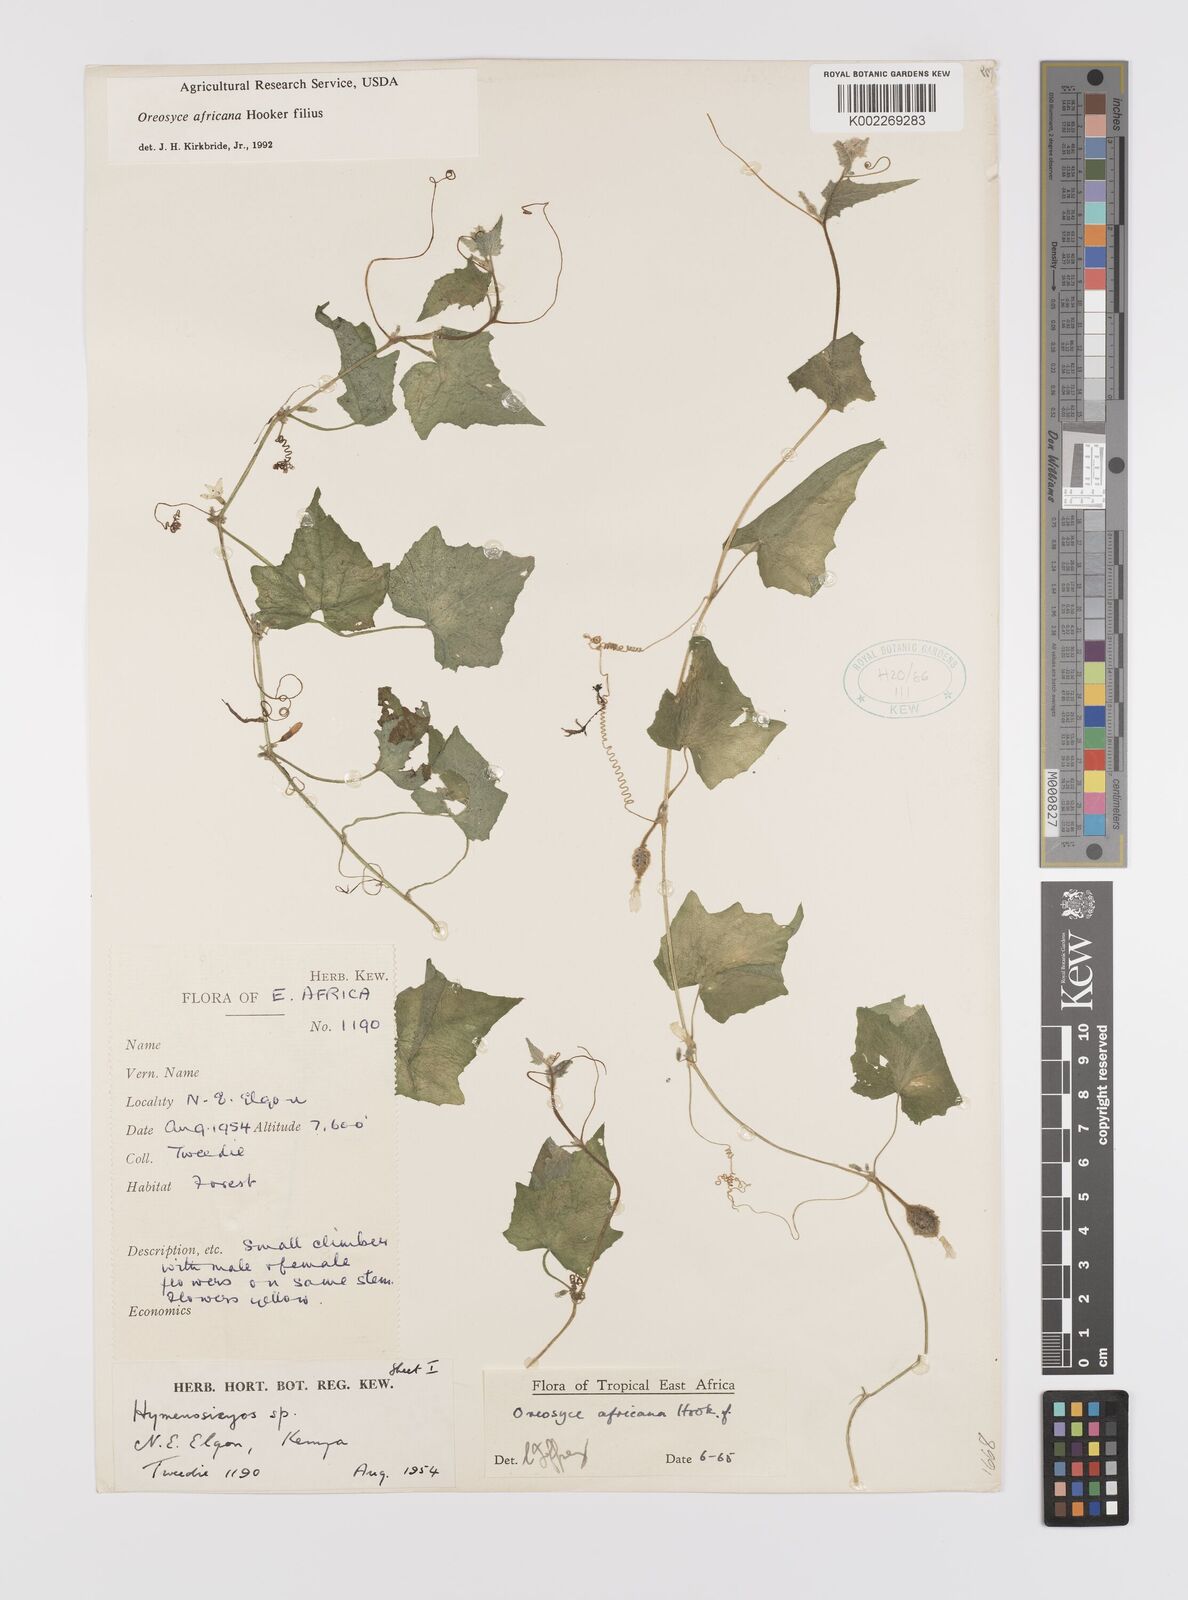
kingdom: Plantae
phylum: Tracheophyta
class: Magnoliopsida
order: Cucurbitales
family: Cucurbitaceae
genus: Cucumis
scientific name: Cucumis oreosyce
